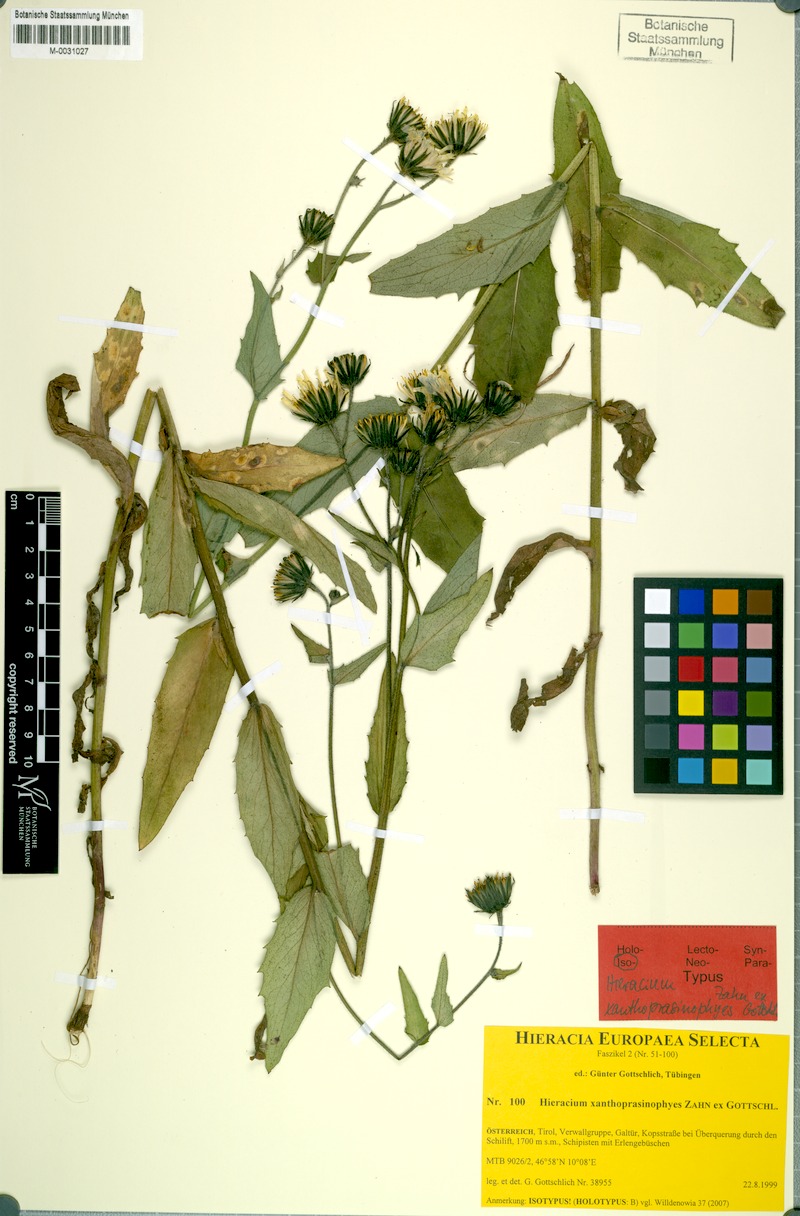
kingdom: Plantae
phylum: Tracheophyta
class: Magnoliopsida
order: Asterales
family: Asteraceae
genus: Hieracium
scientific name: Hieracium xanthoprasinophyes
